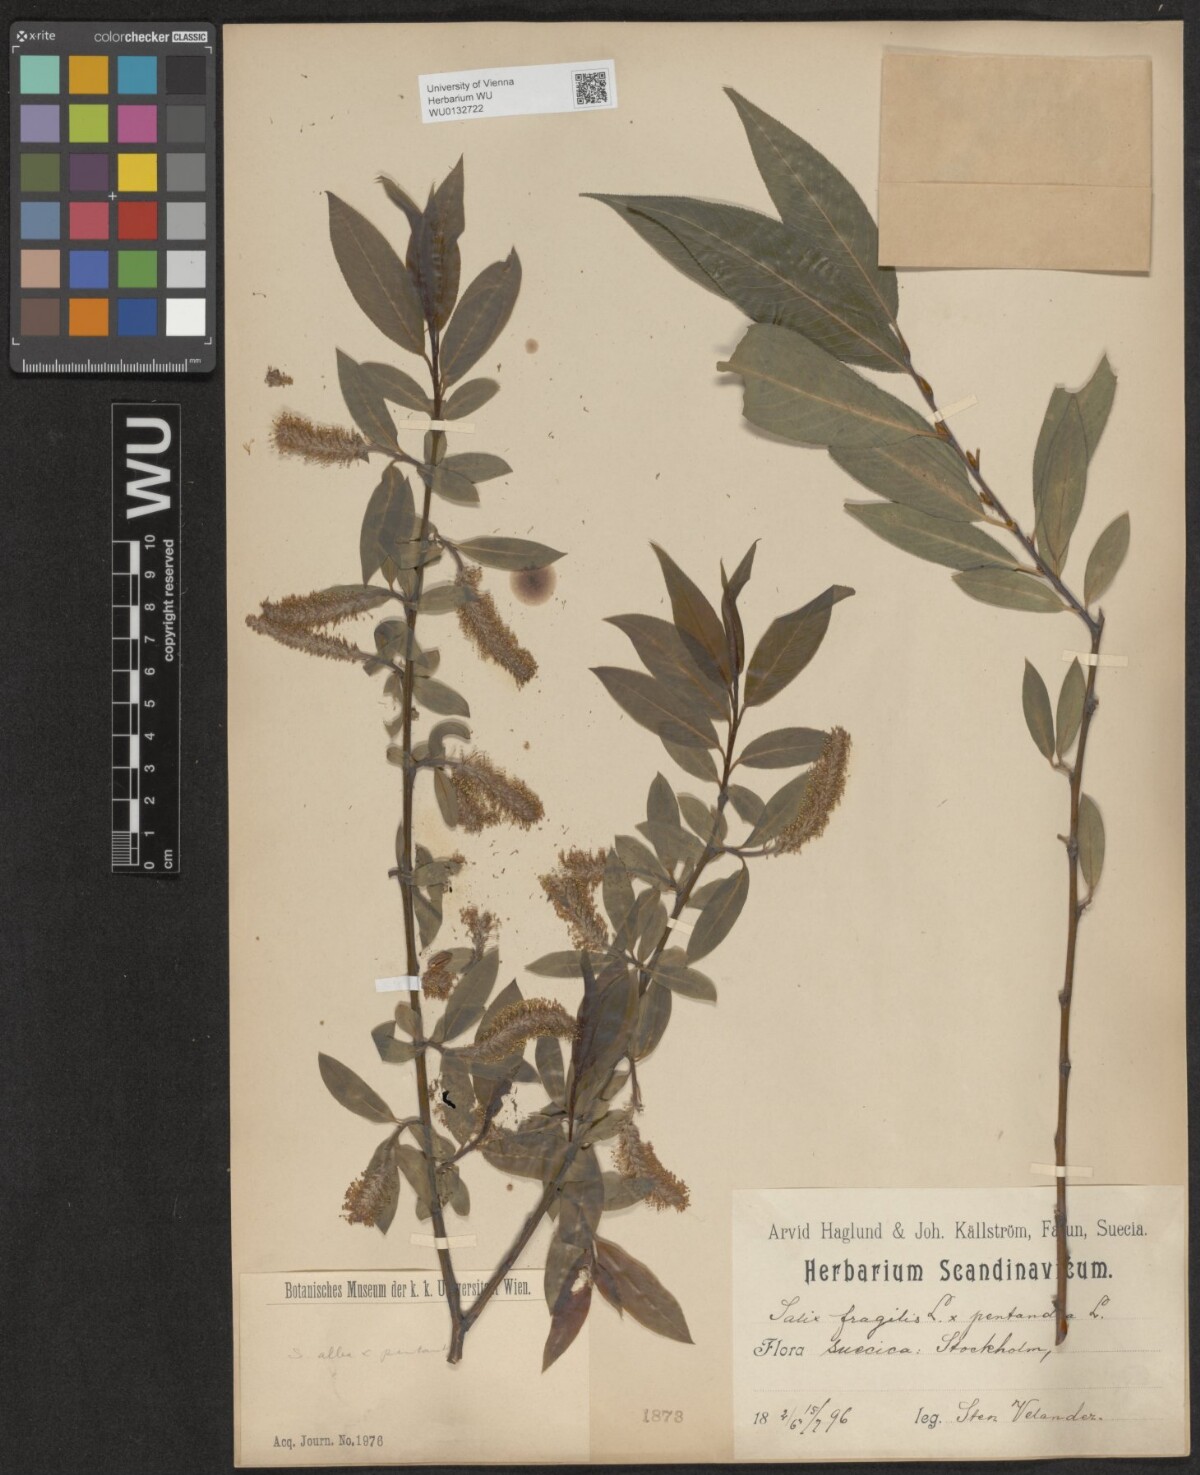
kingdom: Plantae
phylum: Tracheophyta
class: Magnoliopsida
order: Malpighiales
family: Salicaceae
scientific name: Salicaceae
